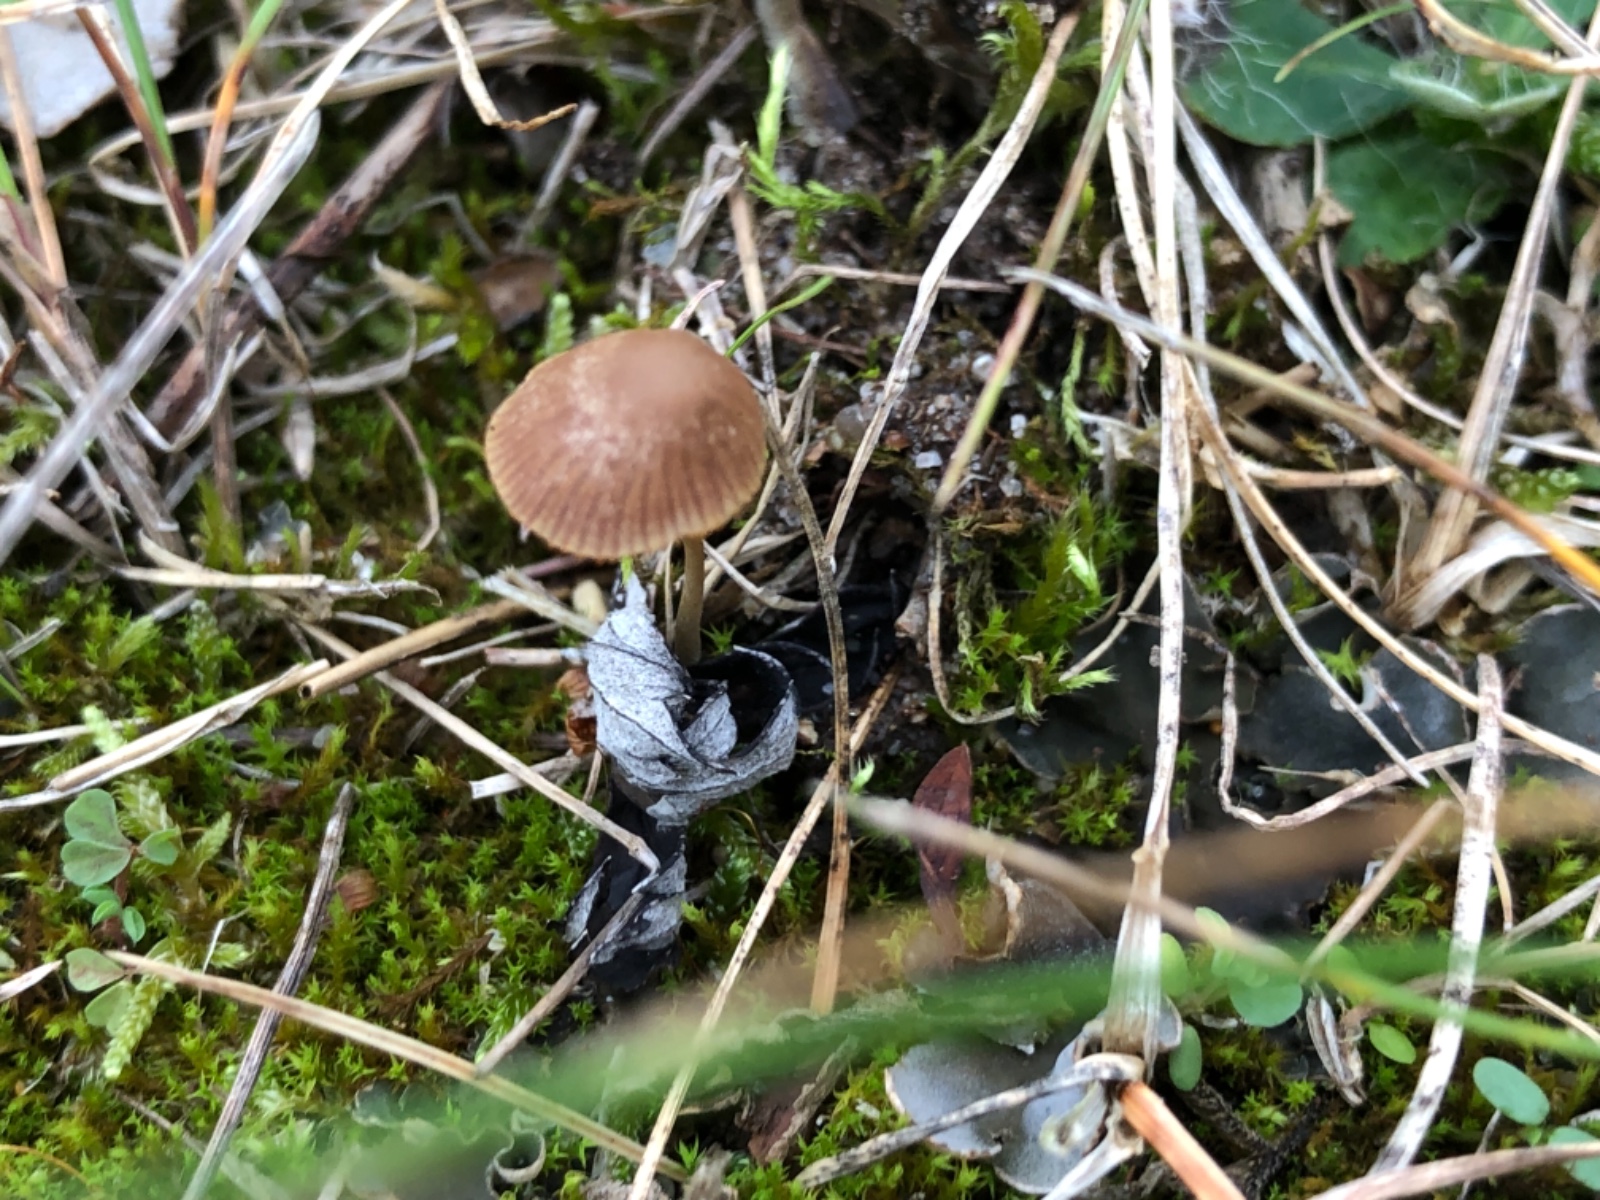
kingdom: Fungi
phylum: Basidiomycota
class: Agaricomycetes
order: Agaricales
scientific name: Agaricales
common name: champignonordenen
